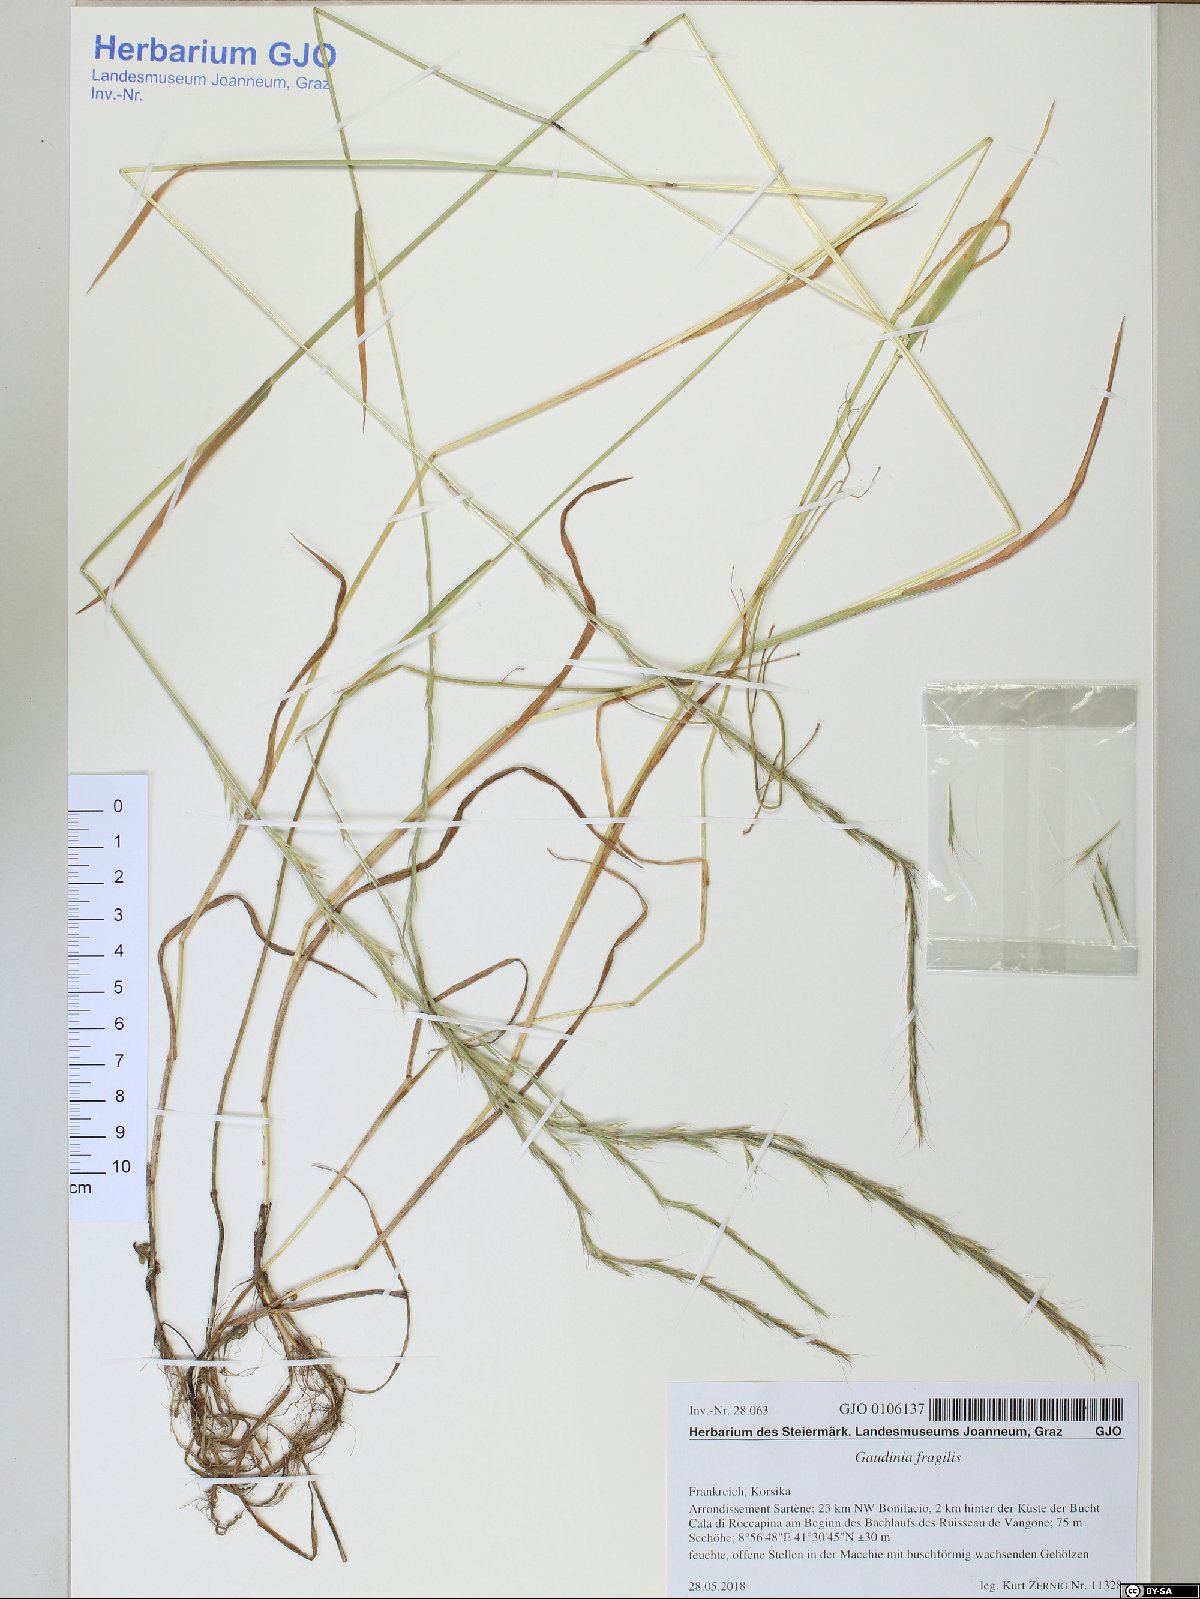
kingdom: Plantae
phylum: Tracheophyta
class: Liliopsida
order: Poales
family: Poaceae
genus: Gaudinia
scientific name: Gaudinia fragilis
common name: French oat-grass
